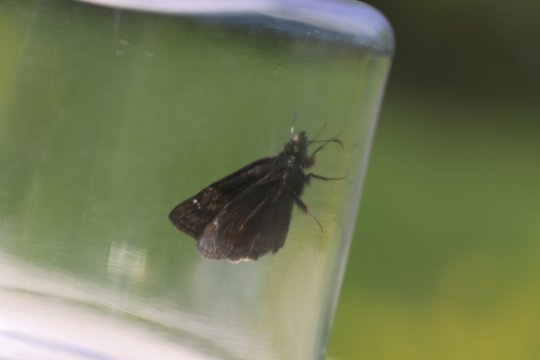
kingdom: Animalia
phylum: Arthropoda
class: Insecta
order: Lepidoptera
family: Hesperiidae
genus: Erynnis
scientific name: Erynnis
